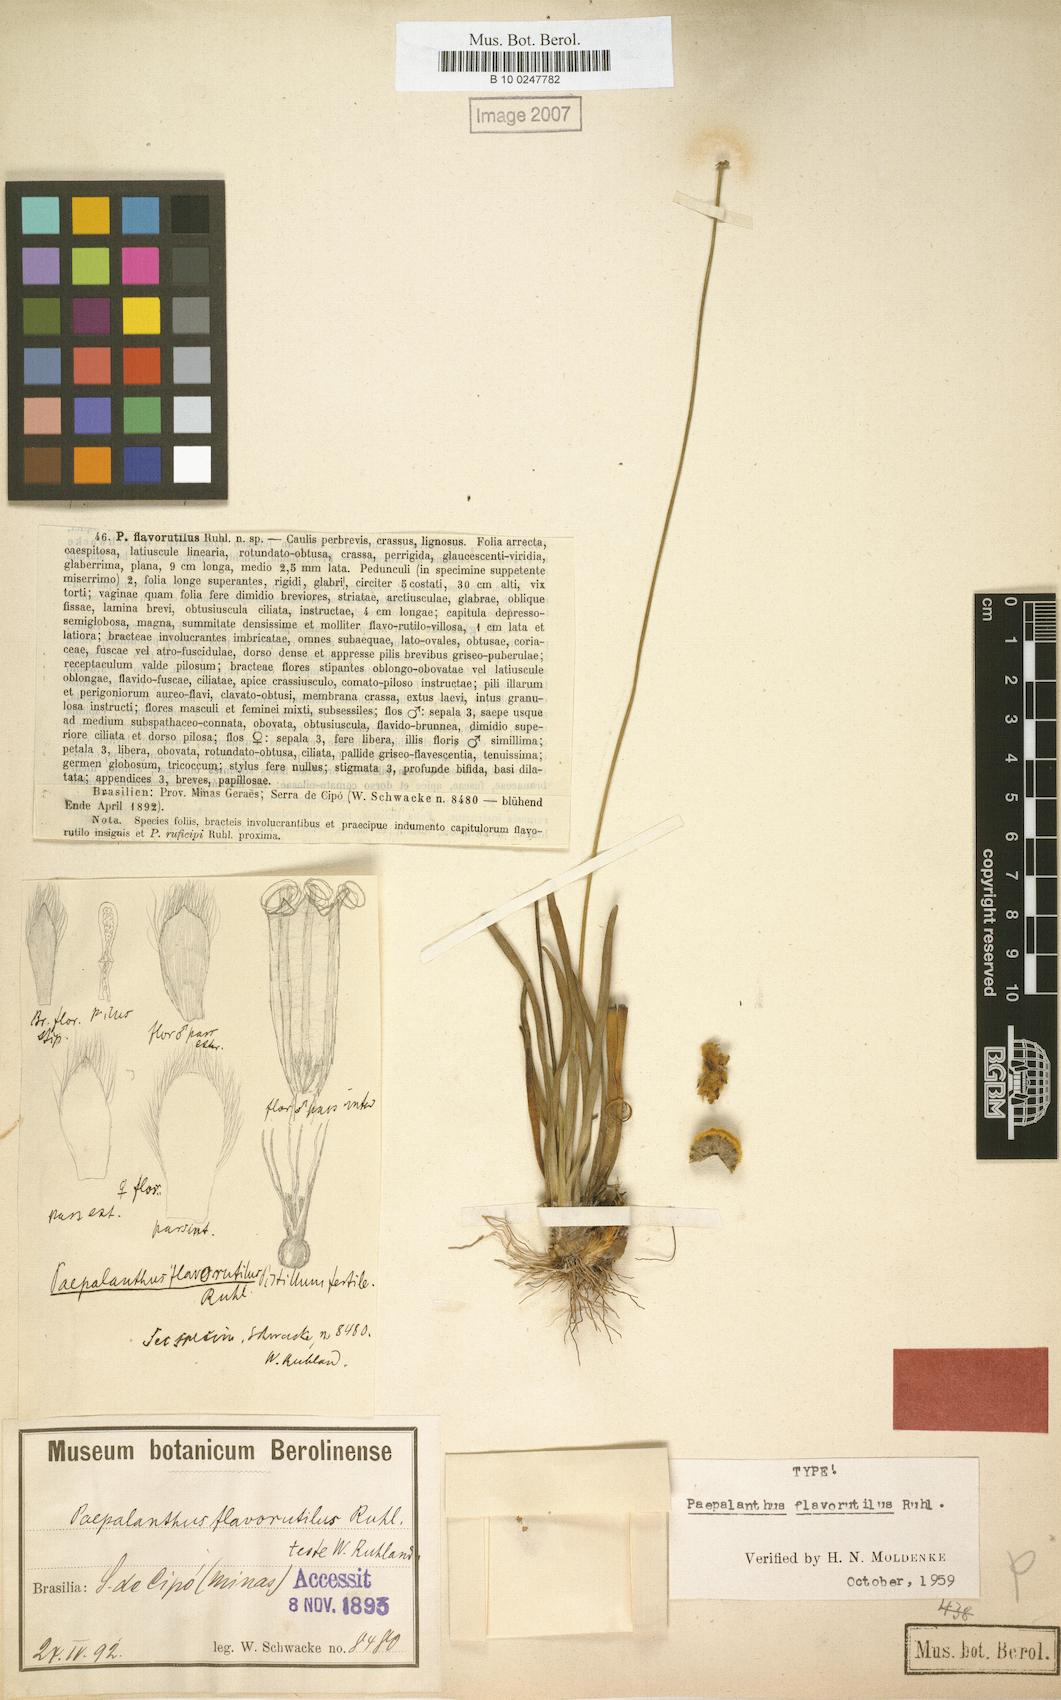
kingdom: Plantae
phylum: Tracheophyta
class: Liliopsida
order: Poales
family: Eriocaulaceae
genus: Paepalanthus
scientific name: Paepalanthus flavorutilus
